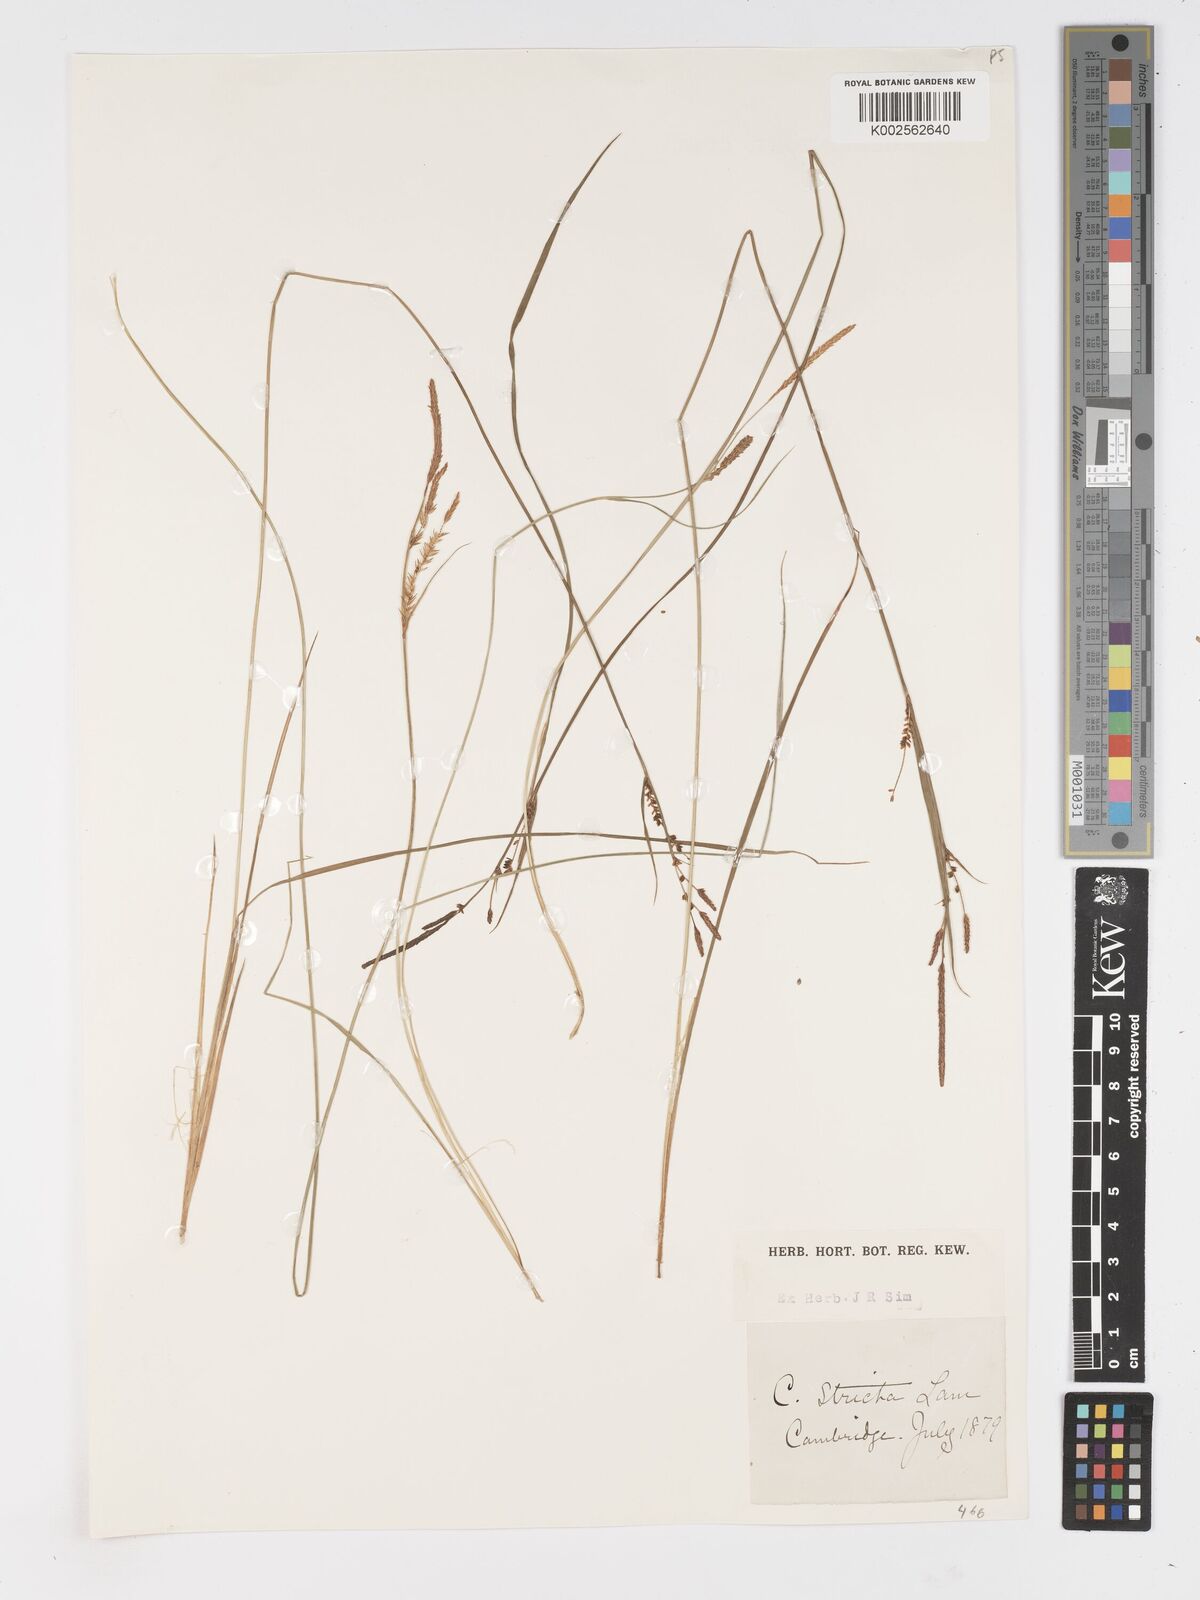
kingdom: Plantae
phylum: Tracheophyta
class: Liliopsida
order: Poales
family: Cyperaceae
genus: Carex
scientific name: Carex stricta
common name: Hummock sedge
